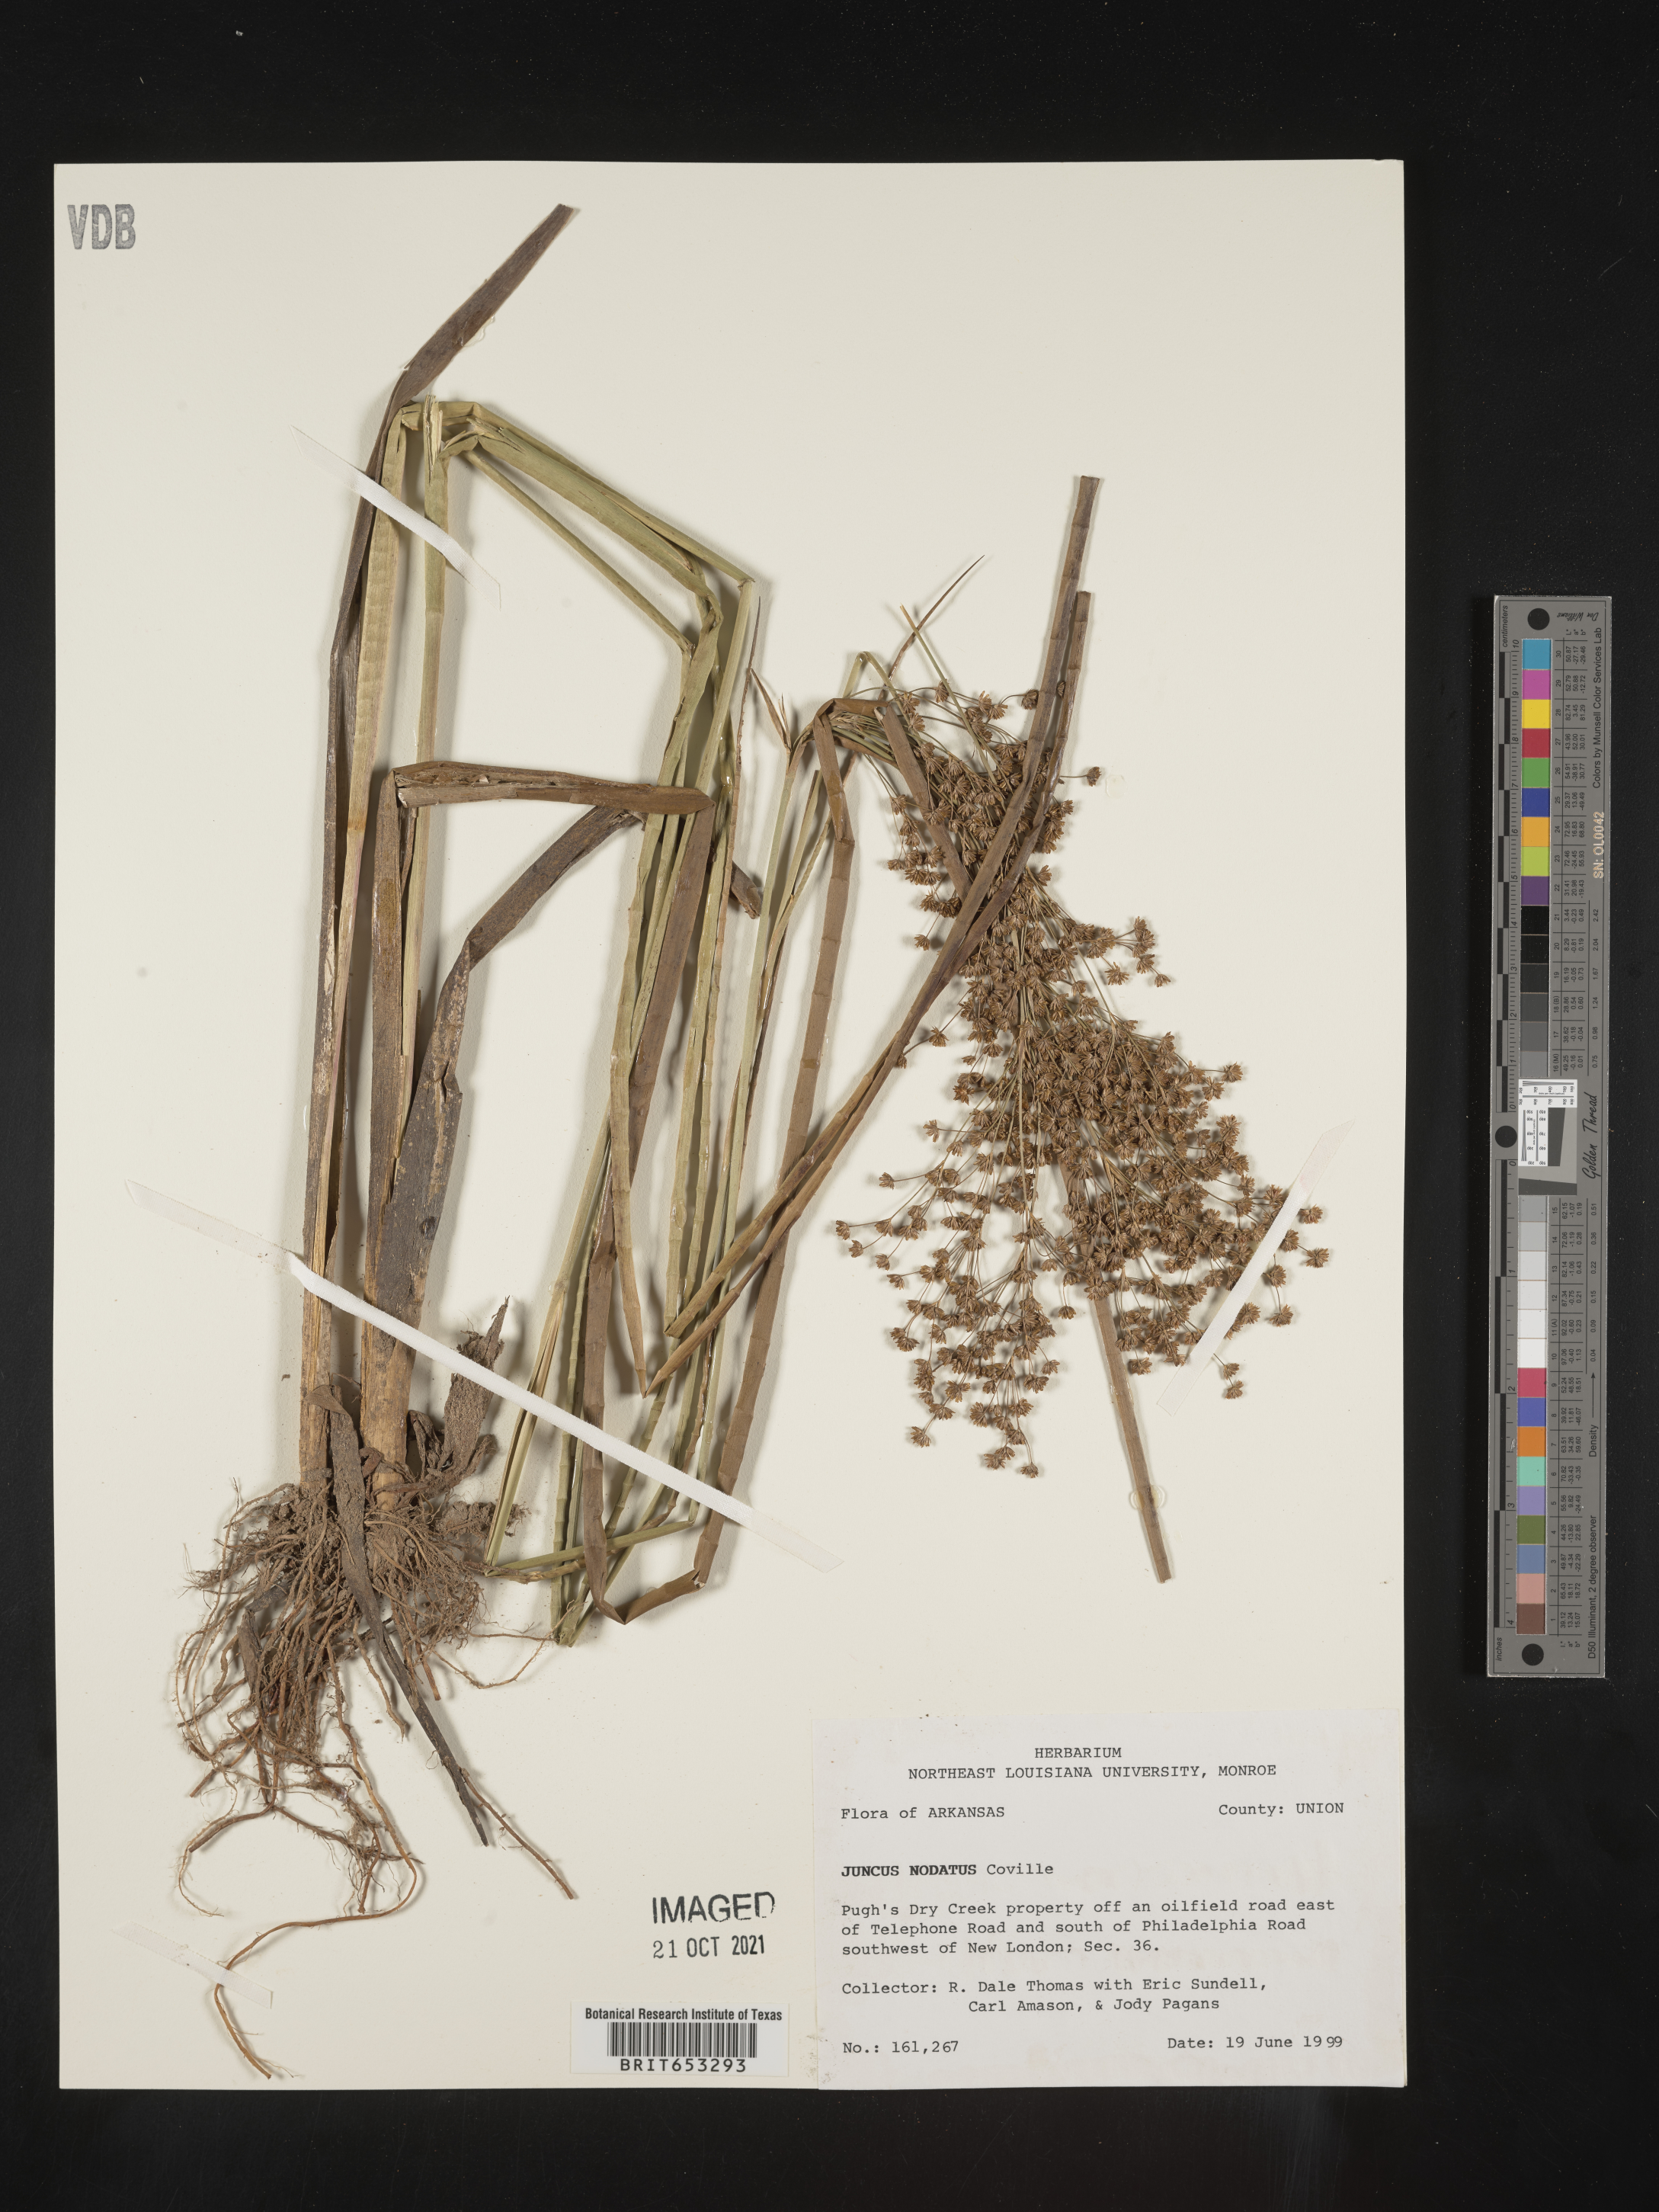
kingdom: Plantae
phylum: Tracheophyta
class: Liliopsida
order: Poales
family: Juncaceae
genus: Juncus
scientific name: Juncus nodatus
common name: Stout rush
